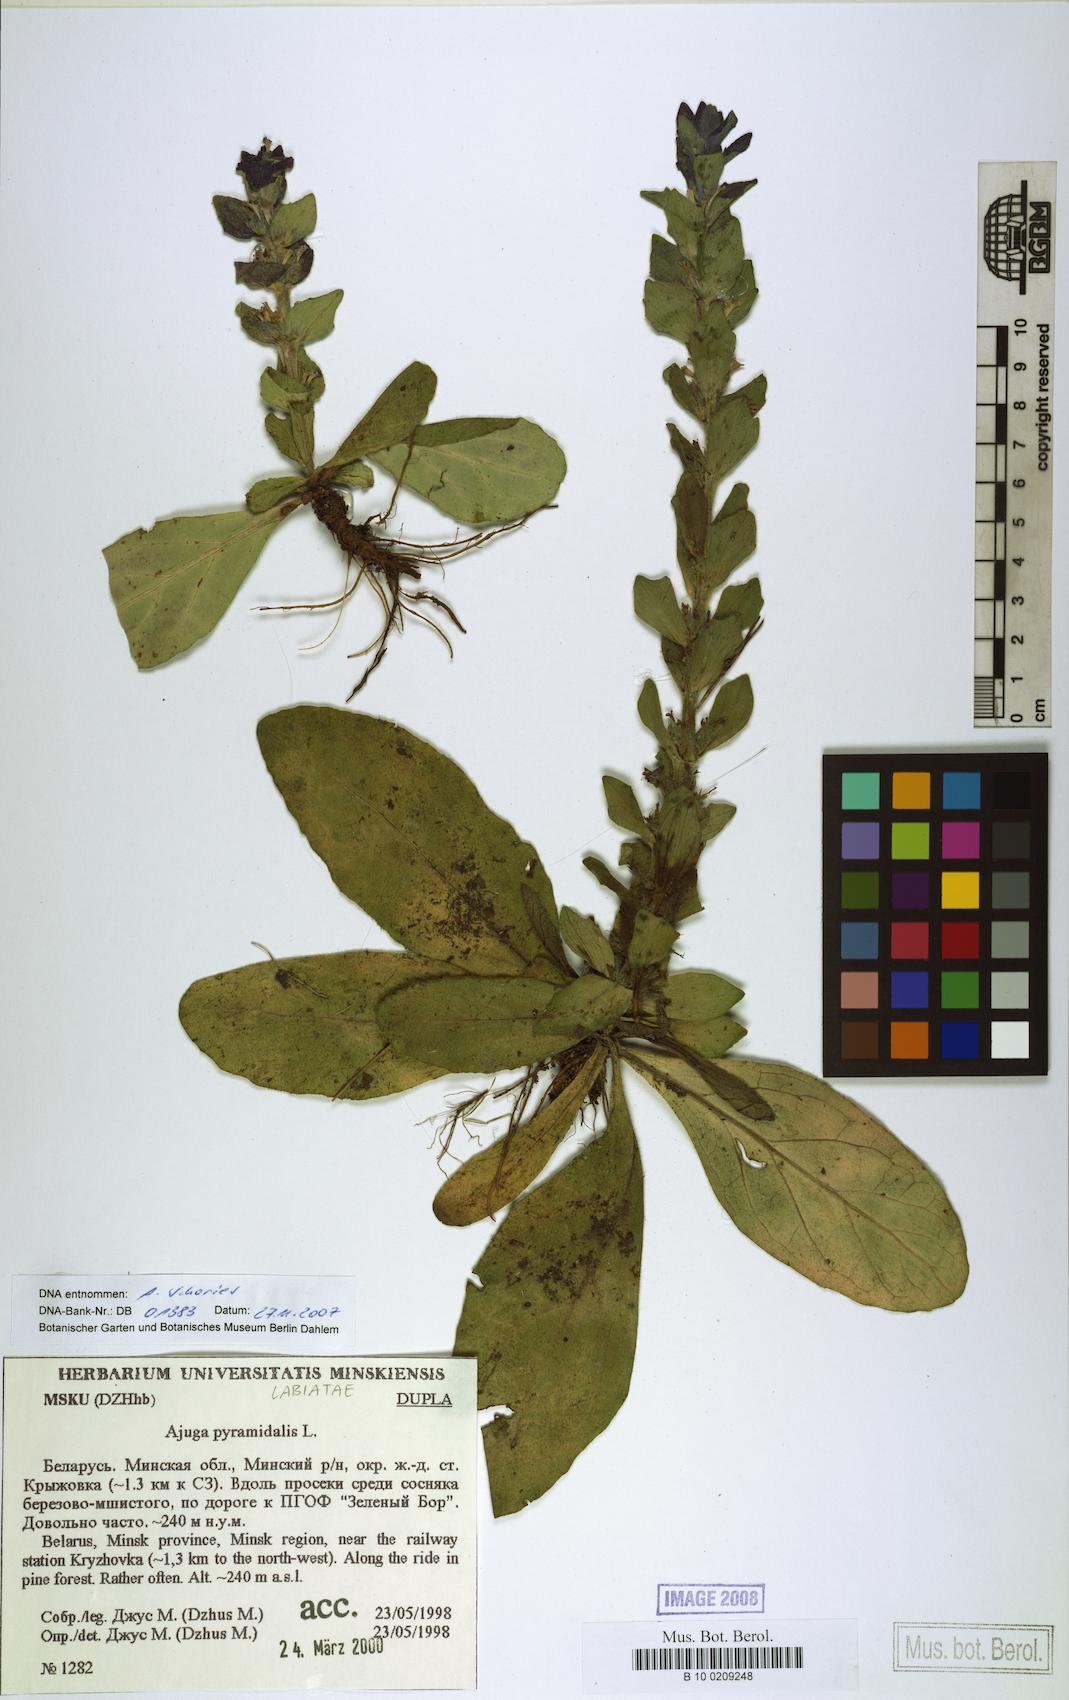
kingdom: Plantae
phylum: Tracheophyta
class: Magnoliopsida
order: Lamiales
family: Lamiaceae
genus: Ajuga
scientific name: Ajuga pyramidalis
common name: Pyramid bugle
